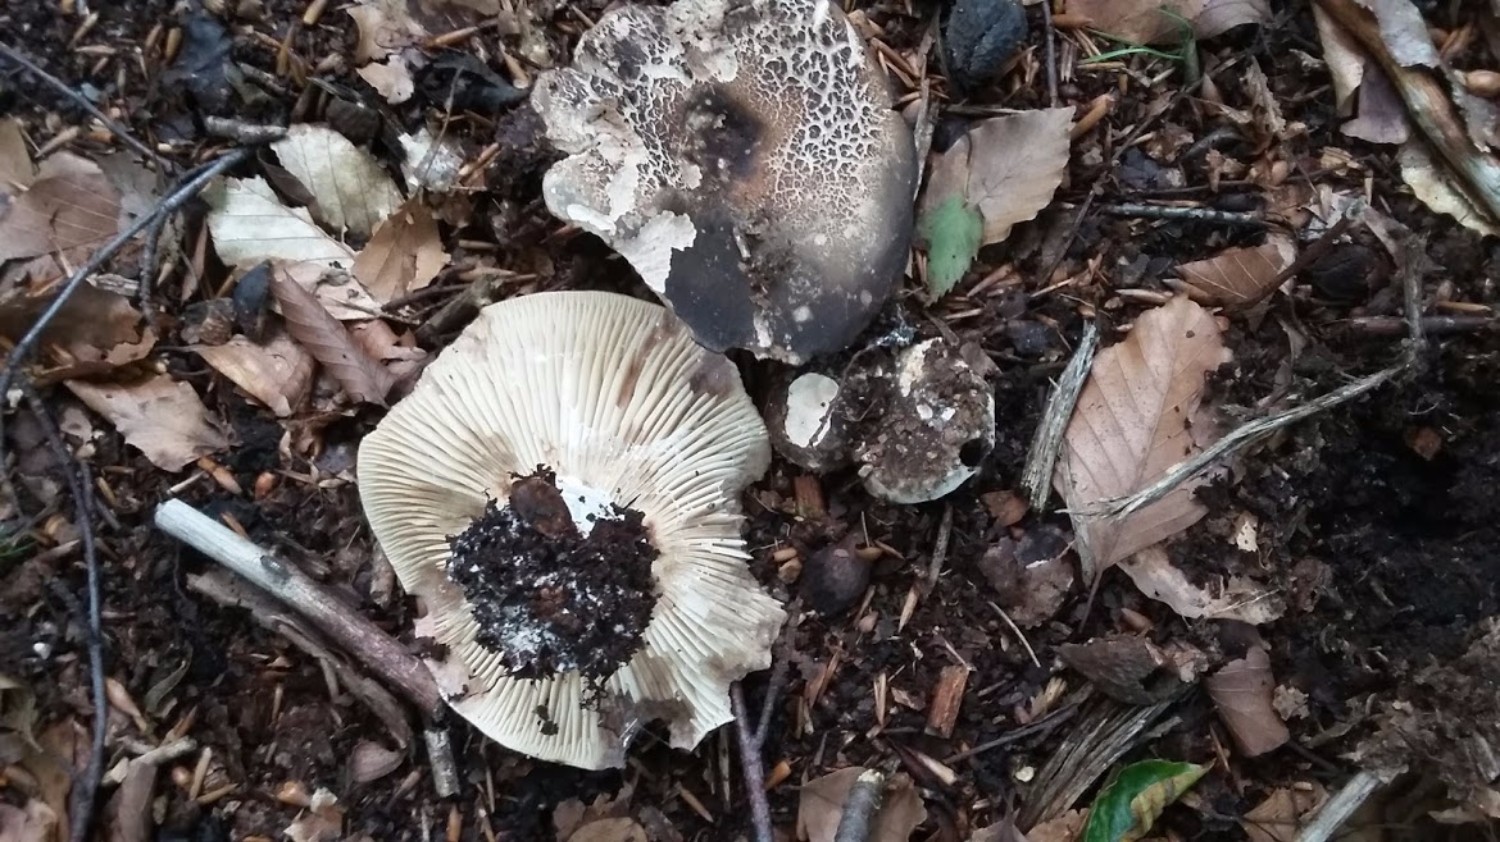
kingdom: Fungi
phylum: Basidiomycota
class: Agaricomycetes
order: Russulales
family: Russulaceae
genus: Russula
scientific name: Russula adusta
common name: sværtende skørhat
